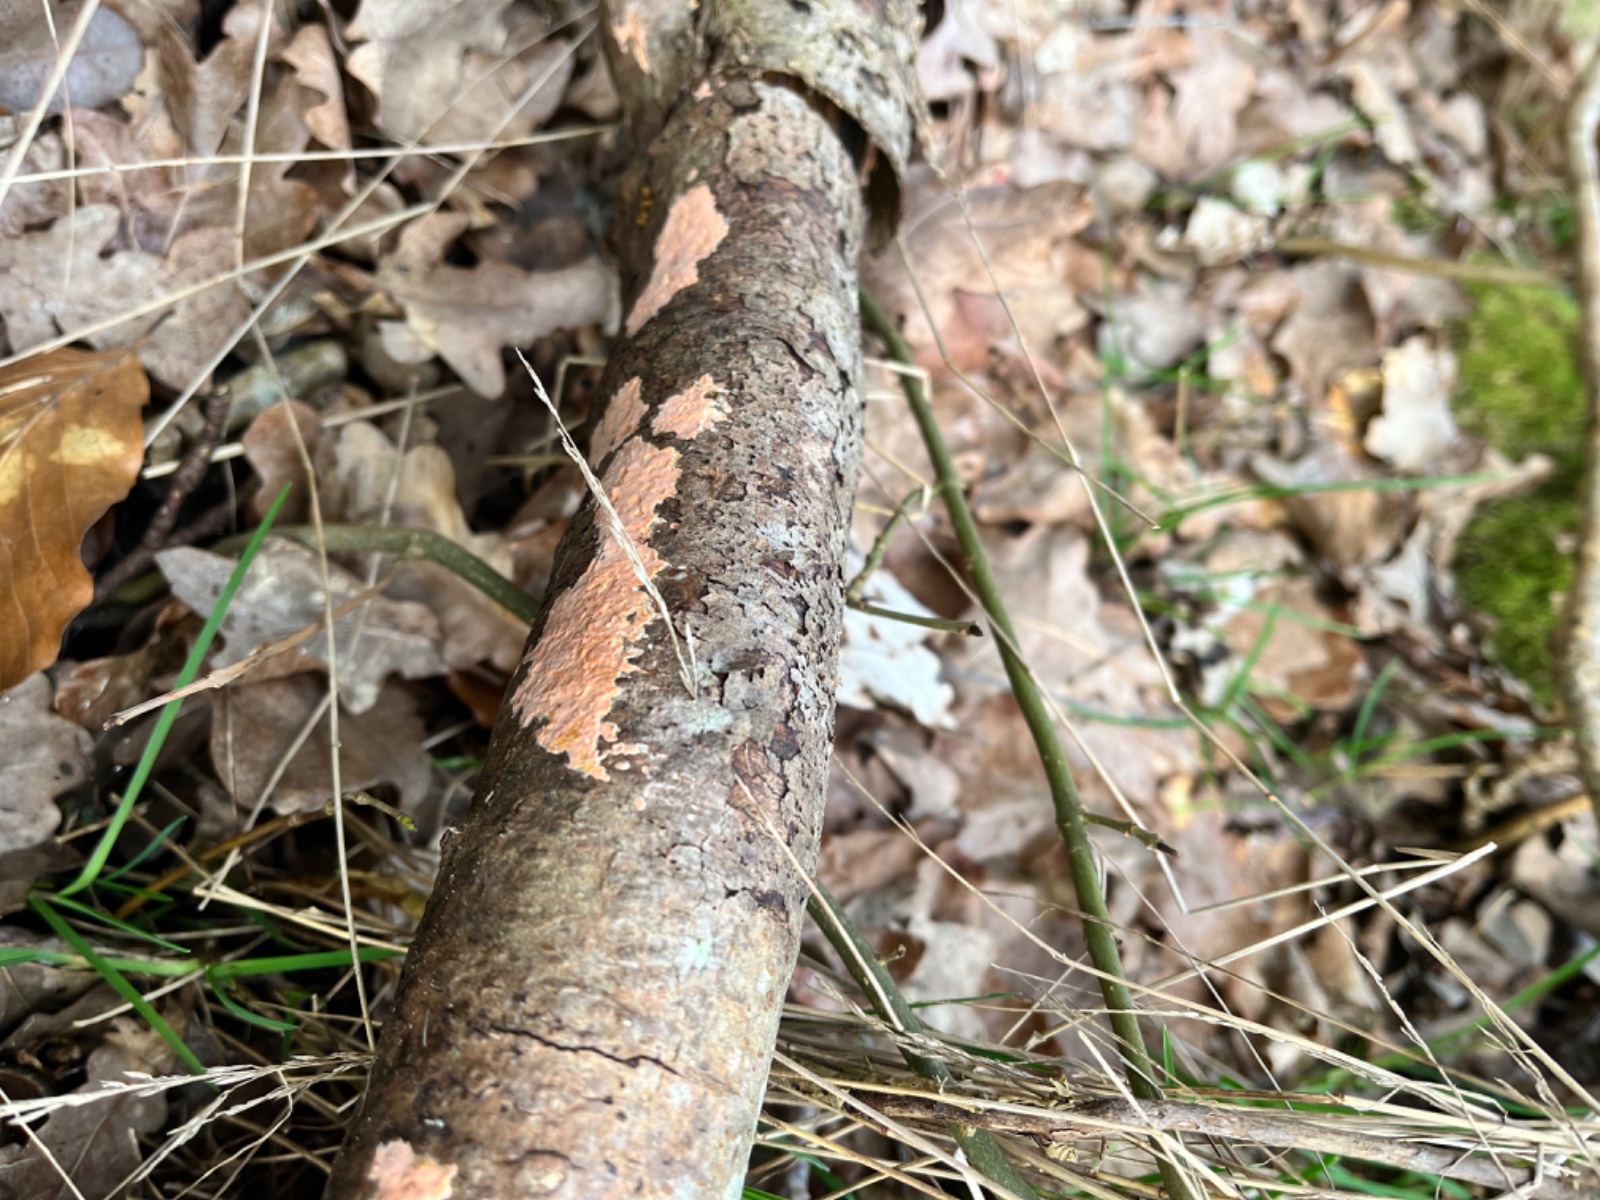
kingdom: Fungi
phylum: Basidiomycota
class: Agaricomycetes
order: Russulales
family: Peniophoraceae
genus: Peniophora
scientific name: Peniophora incarnata
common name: laksefarvet voksskind
